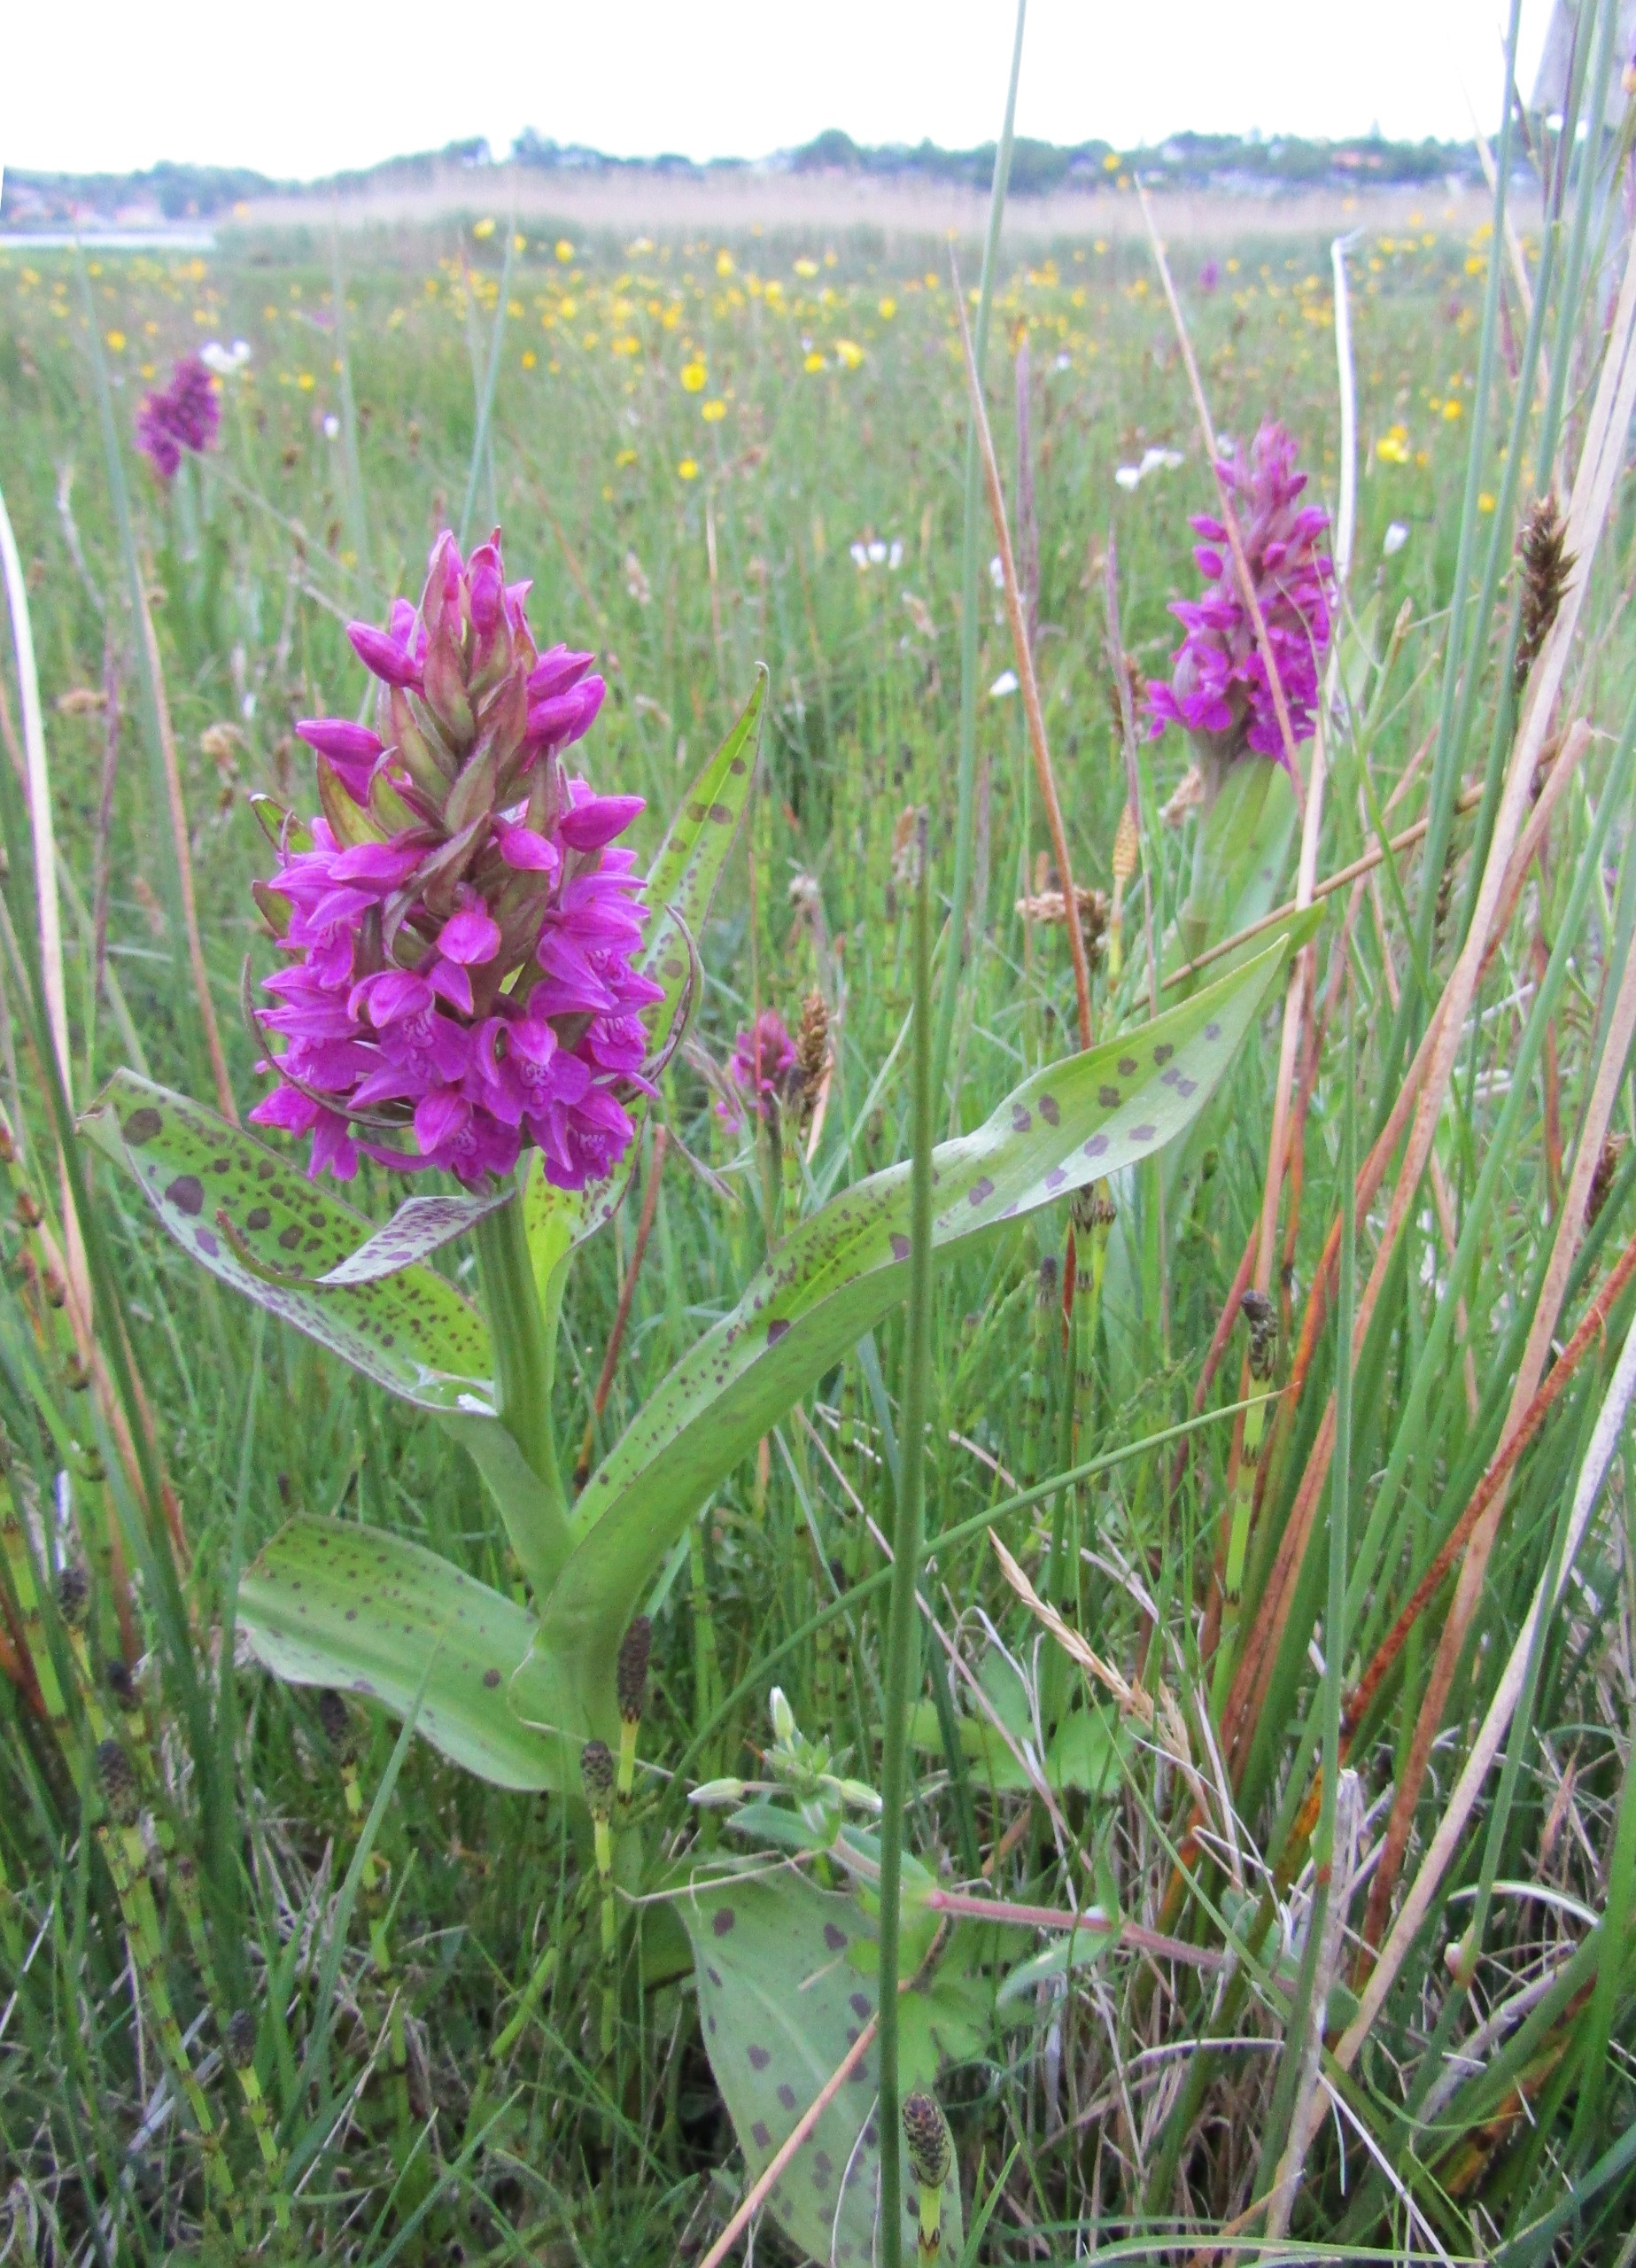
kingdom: Plantae
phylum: Tracheophyta
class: Liliopsida
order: Asparagales
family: Orchidaceae
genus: Dactylorhiza
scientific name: Dactylorhiza majalis
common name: Maj-gøgeurt
